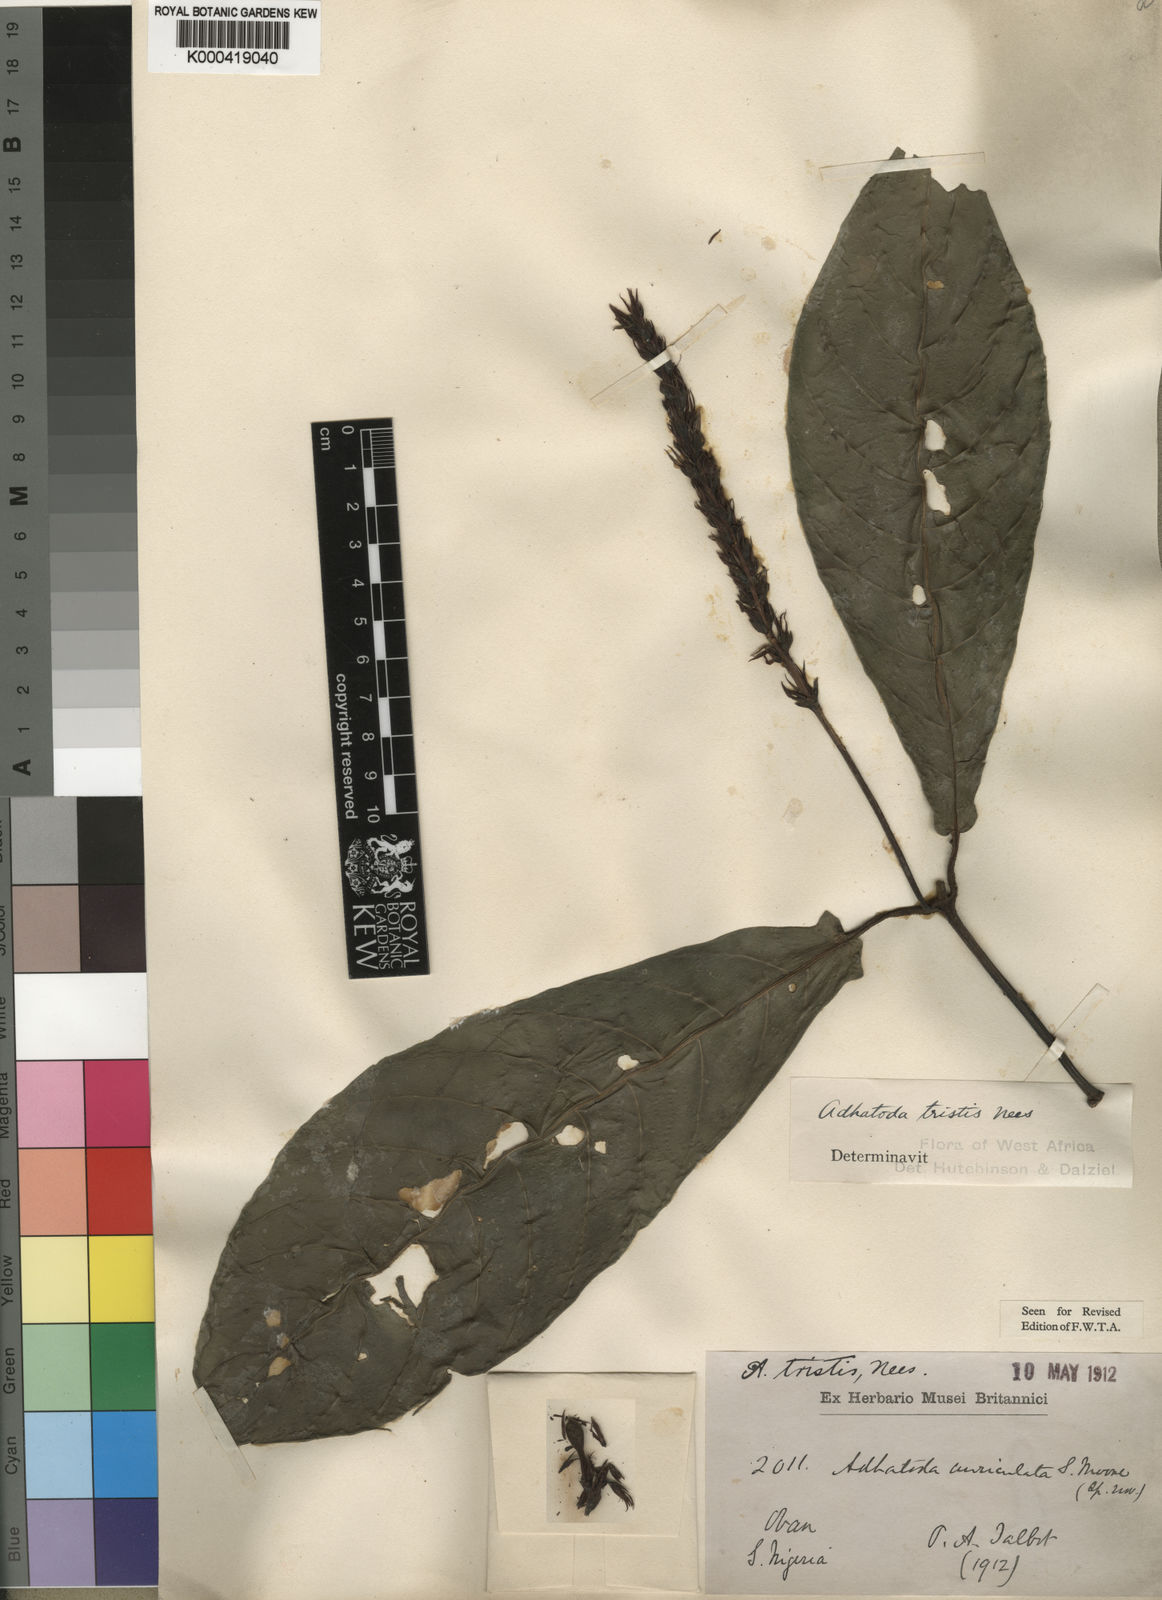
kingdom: Plantae
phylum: Tracheophyta
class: Magnoliopsida
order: Lamiales
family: Acanthaceae
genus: Justicia
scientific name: Justicia tristis
